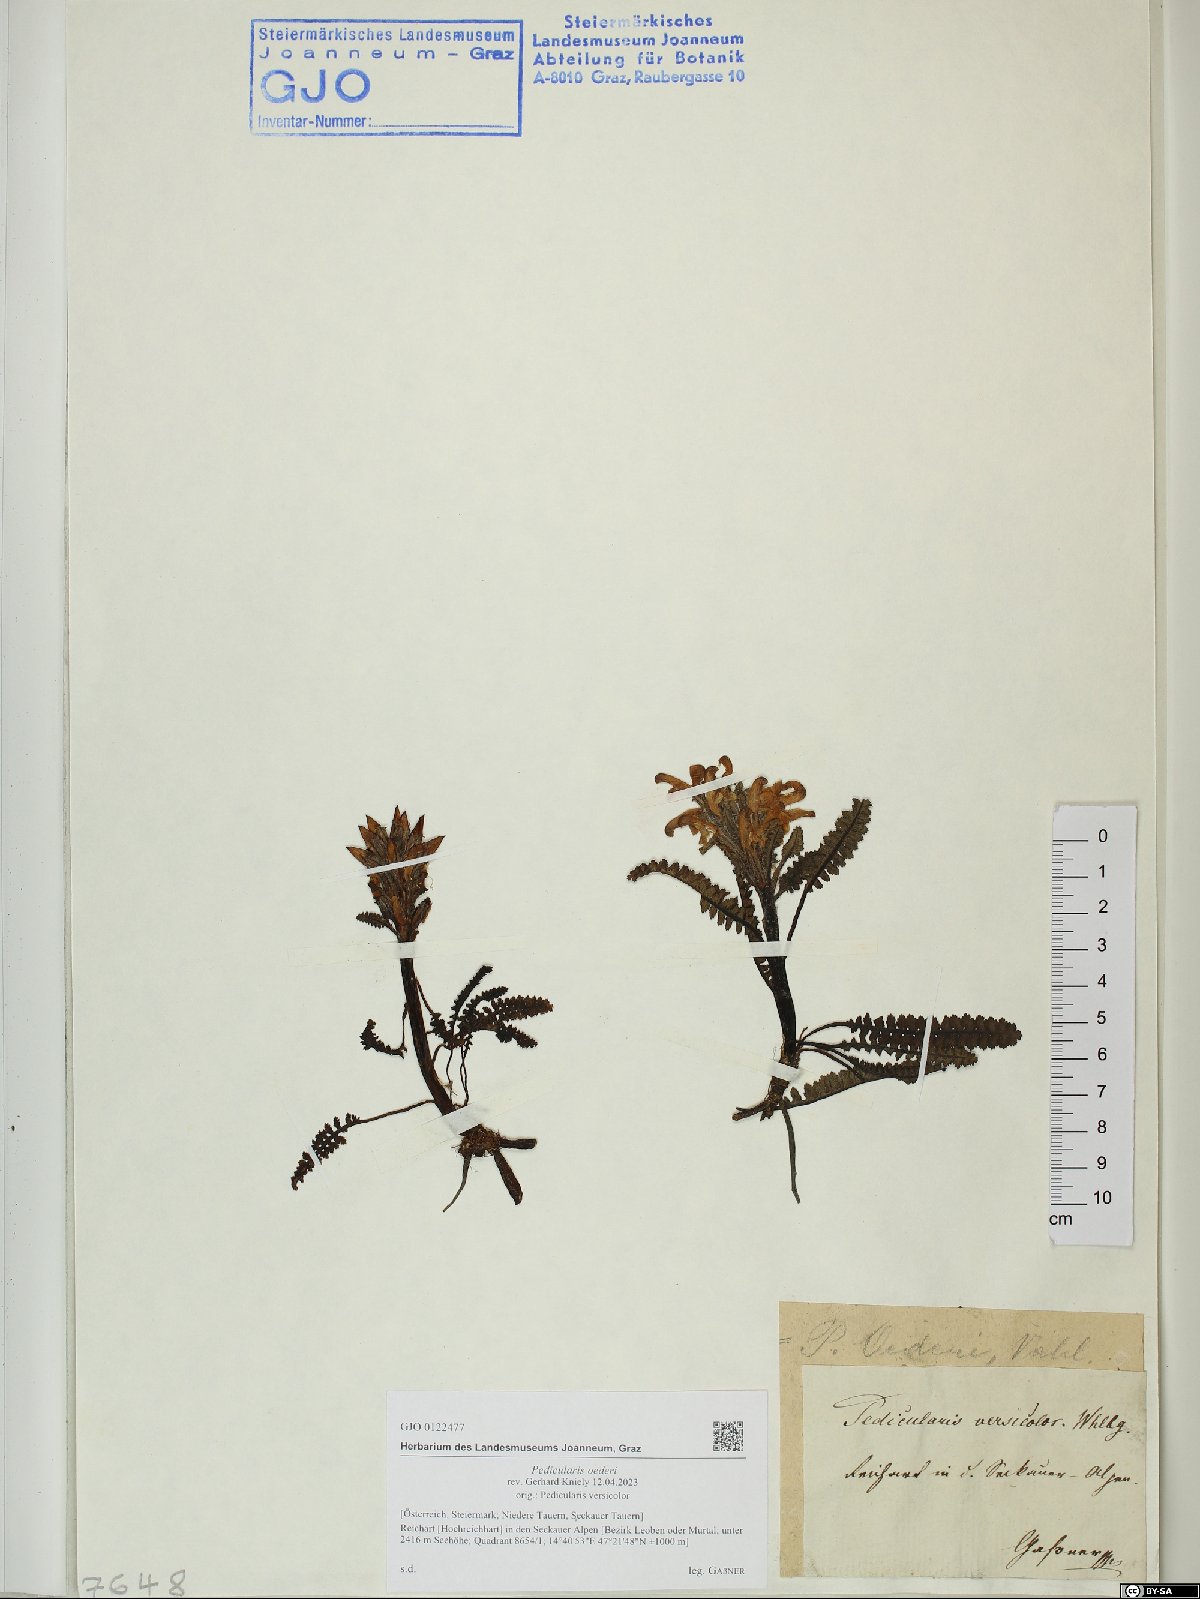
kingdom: Plantae
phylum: Tracheophyta
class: Magnoliopsida
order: Lamiales
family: Orobanchaceae
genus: Pedicularis
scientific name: Pedicularis oederi
